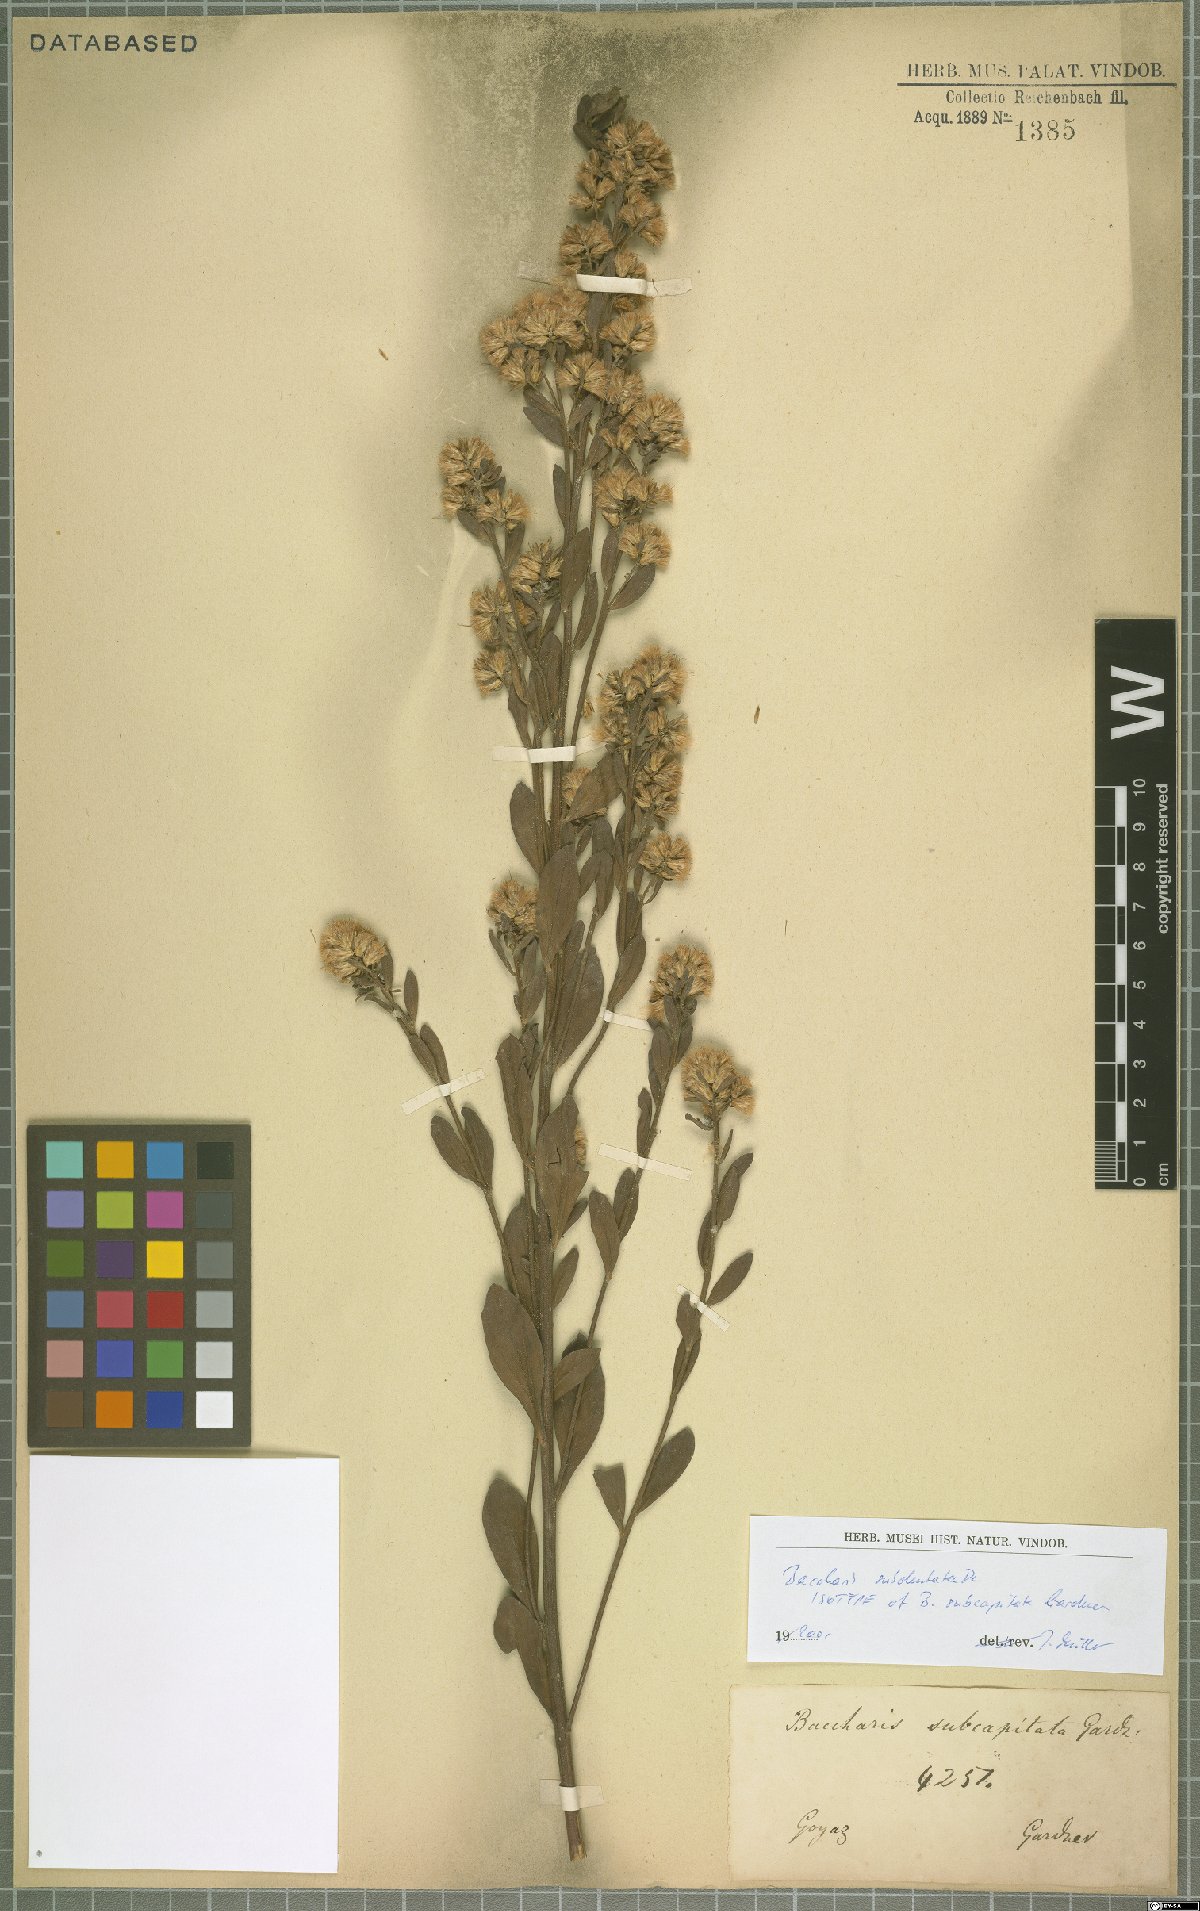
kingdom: Plantae
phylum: Tracheophyta
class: Magnoliopsida
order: Asterales
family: Asteraceae
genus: Baccharis
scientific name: Baccharis subdentata
